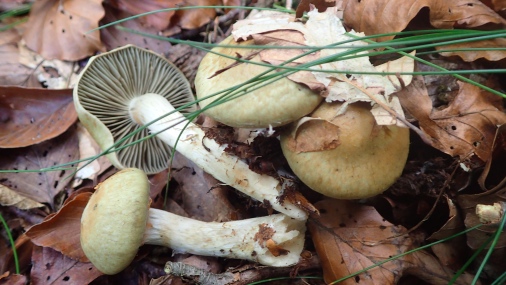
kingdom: Fungi
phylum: Basidiomycota
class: Agaricomycetes
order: Agaricales
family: Cortinariaceae
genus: Cortinarius
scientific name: Cortinarius subtortus
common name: olivengul slørhat
